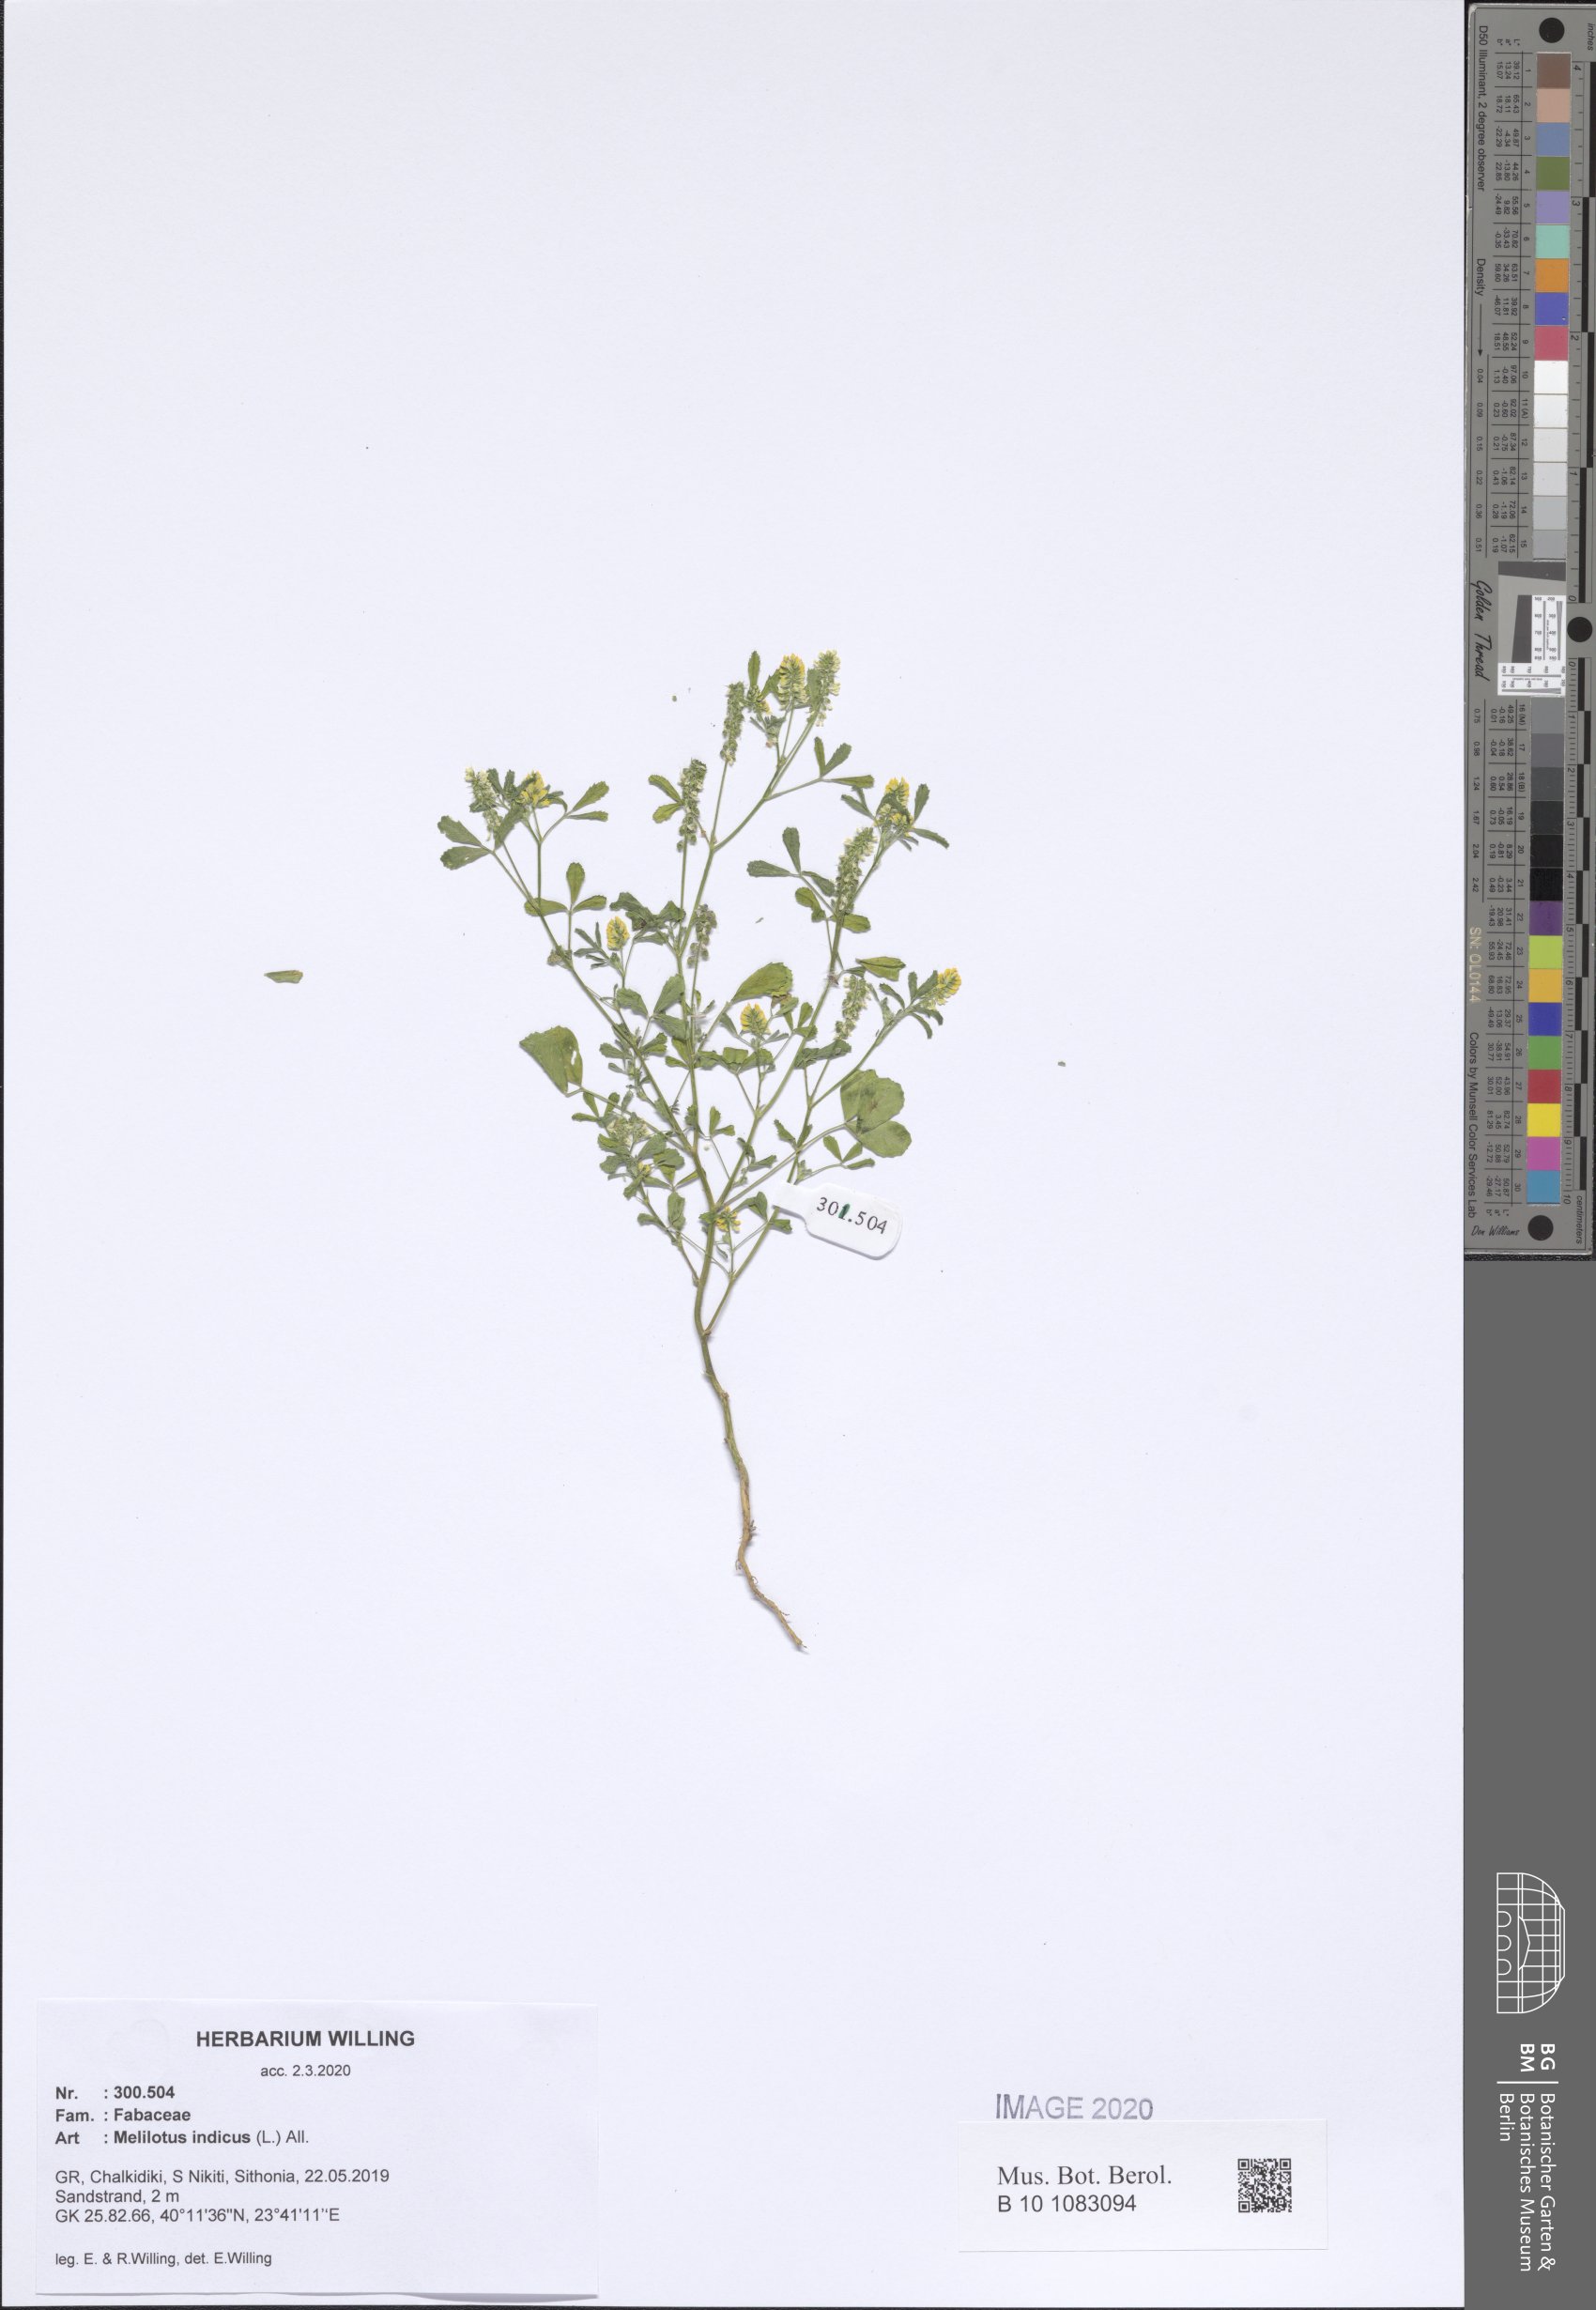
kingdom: Plantae
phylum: Tracheophyta
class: Magnoliopsida
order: Fabales
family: Fabaceae
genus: Melilotus
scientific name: Melilotus indicus
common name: Small melilot
